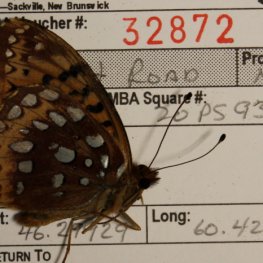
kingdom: Animalia
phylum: Arthropoda
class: Insecta
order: Lepidoptera
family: Nymphalidae
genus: Speyeria
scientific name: Speyeria cybele
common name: Great Spangled Fritillary
